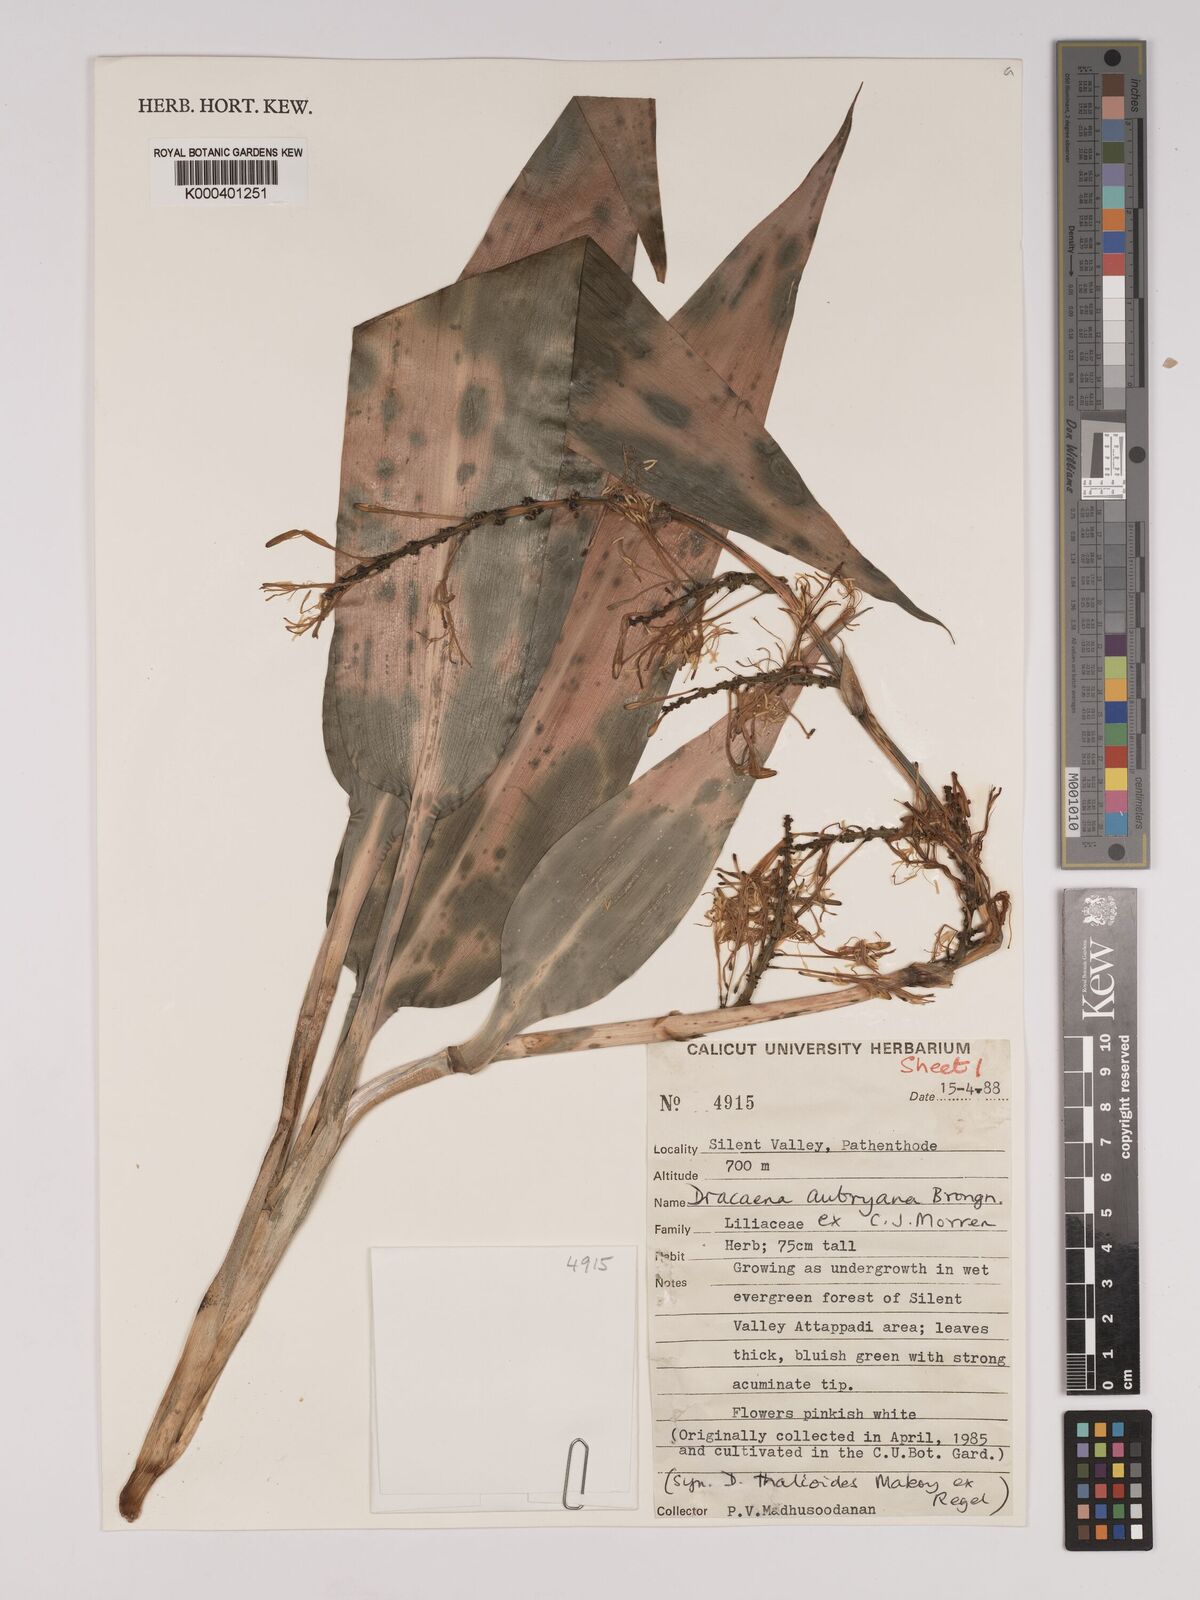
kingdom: Plantae
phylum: Tracheophyta
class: Liliopsida
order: Asparagales
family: Asparagaceae
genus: Dracaena
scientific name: Dracaena aubryana
